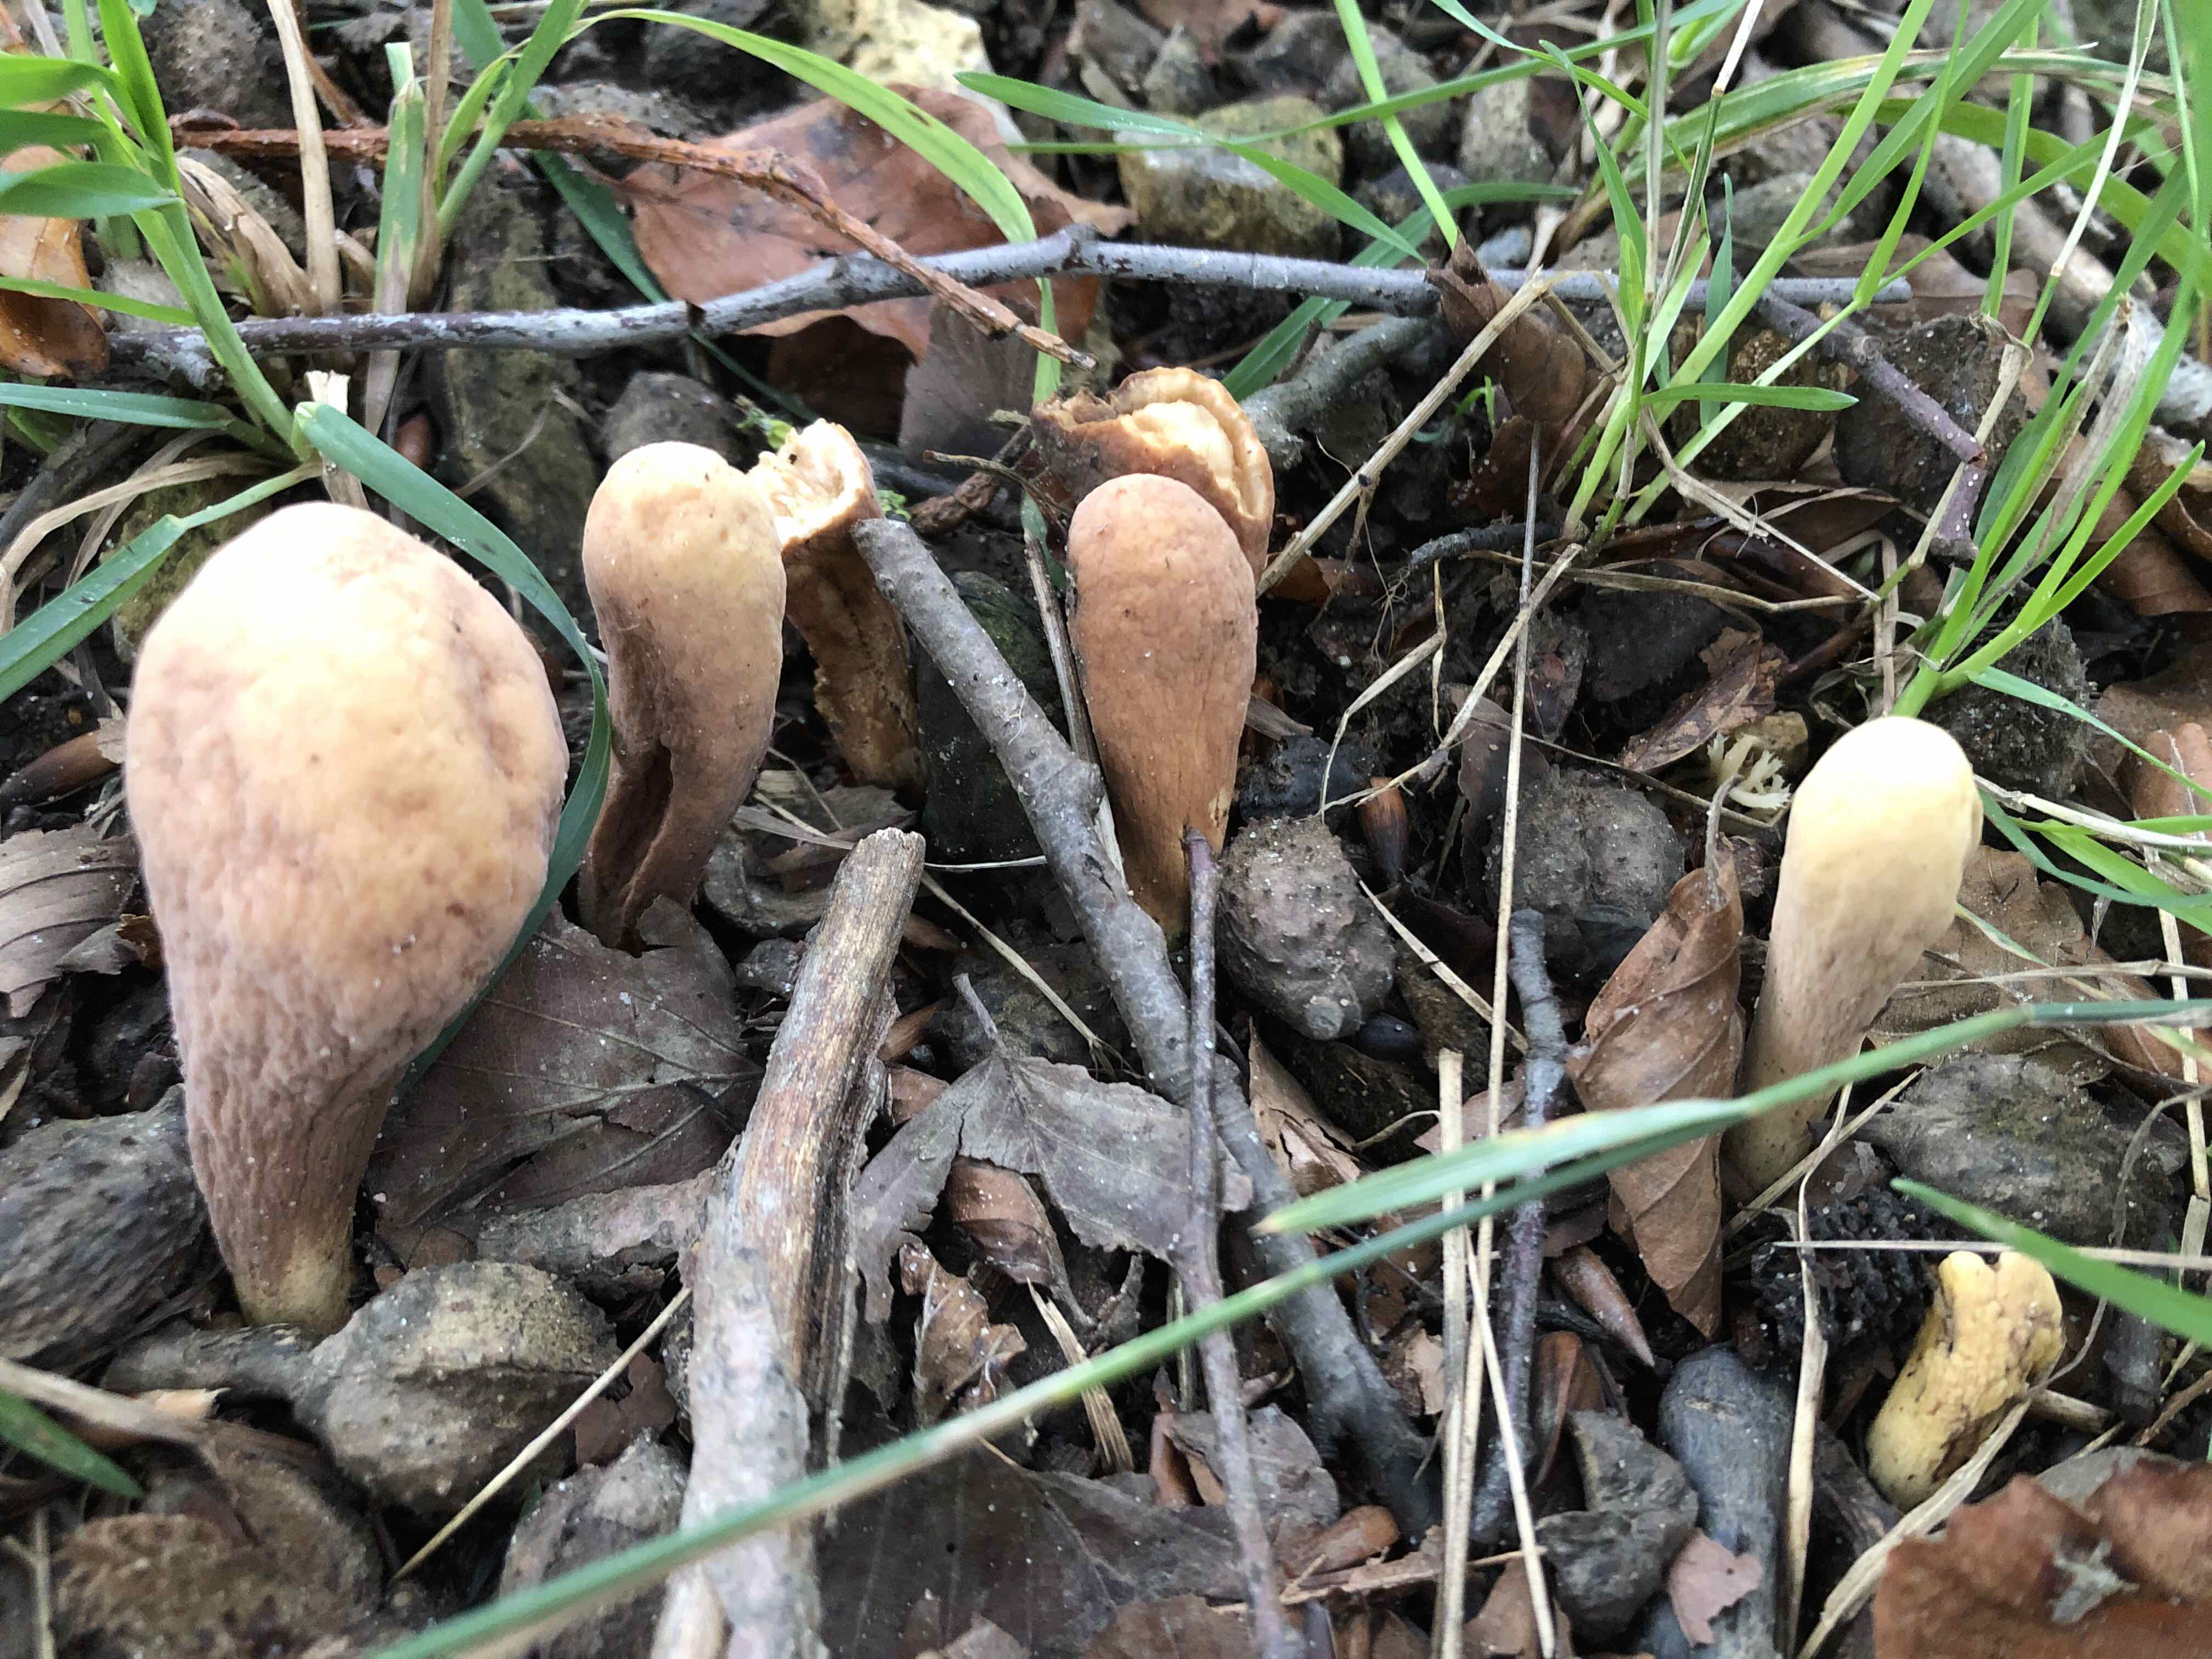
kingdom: Fungi
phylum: Basidiomycota
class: Agaricomycetes
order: Gomphales
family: Clavariadelphaceae
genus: Clavariadelphus
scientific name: Clavariadelphus pistillaris
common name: herkules-kæmpekølle
